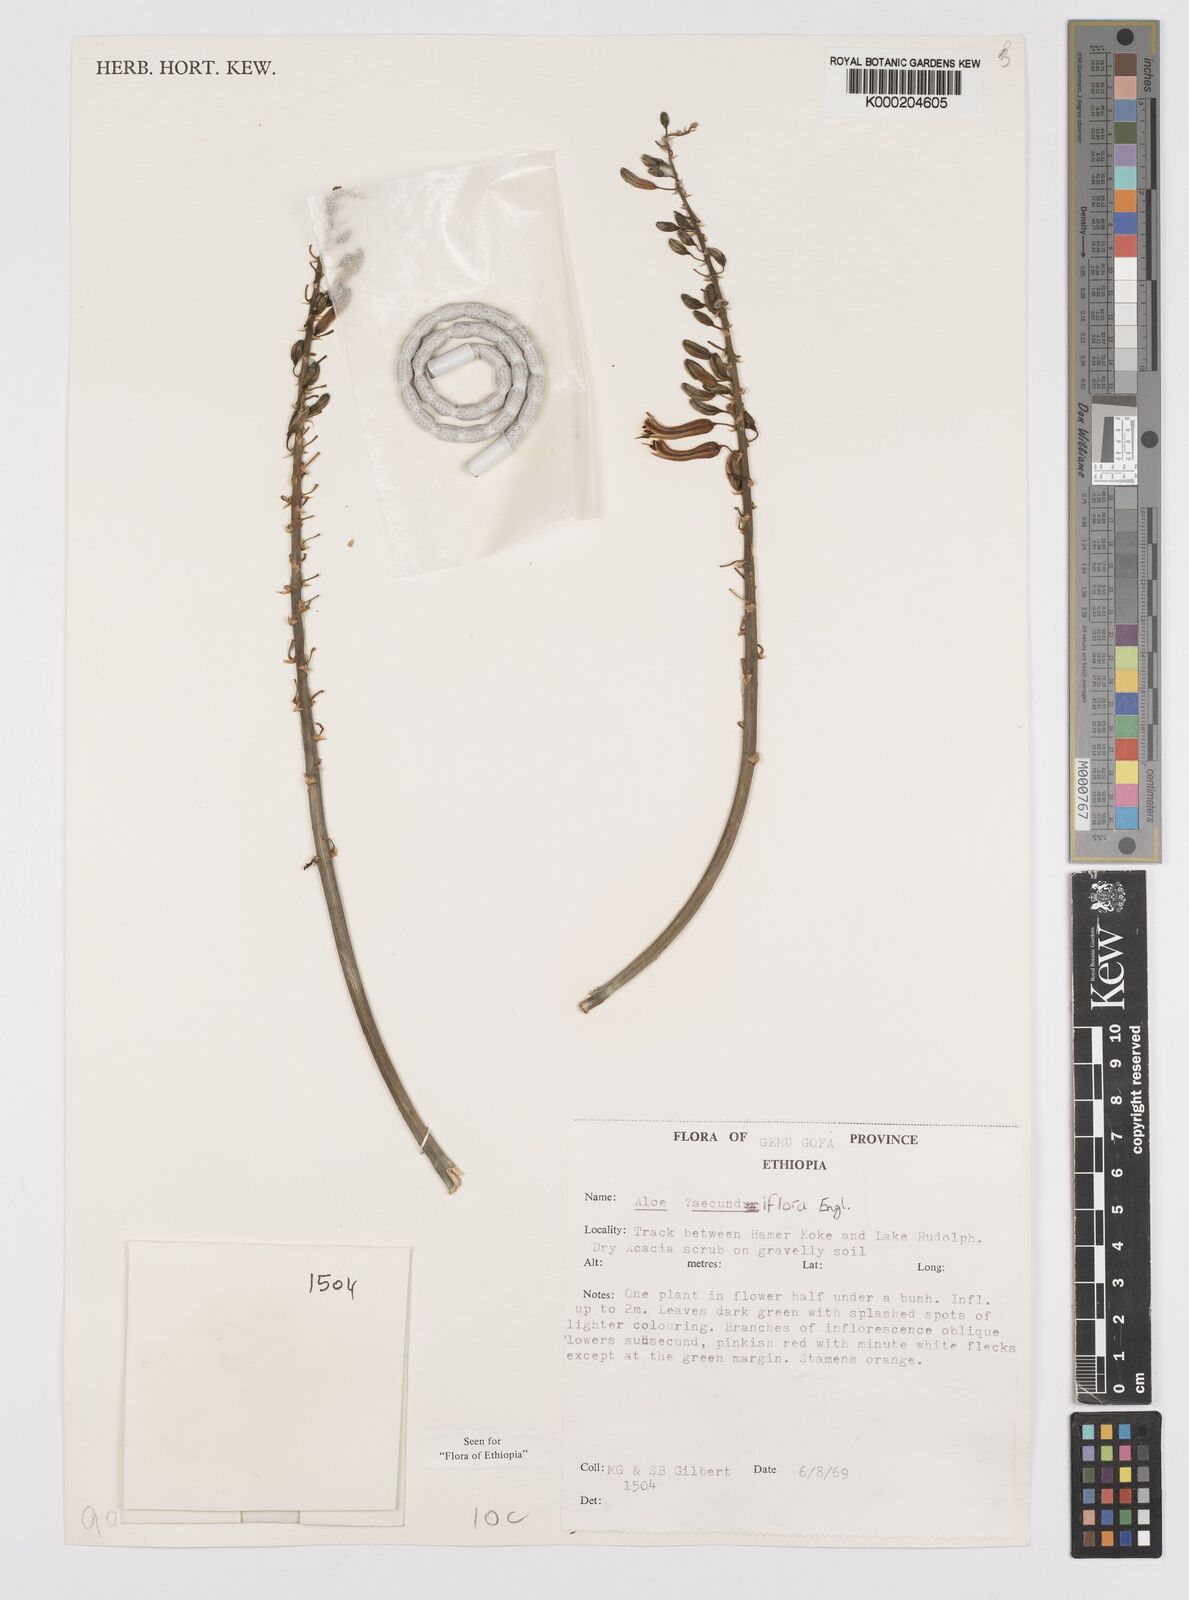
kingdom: Plantae
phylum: Tracheophyta
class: Liliopsida
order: Asparagales
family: Asphodelaceae
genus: Aloe
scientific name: Aloe secundiflora
